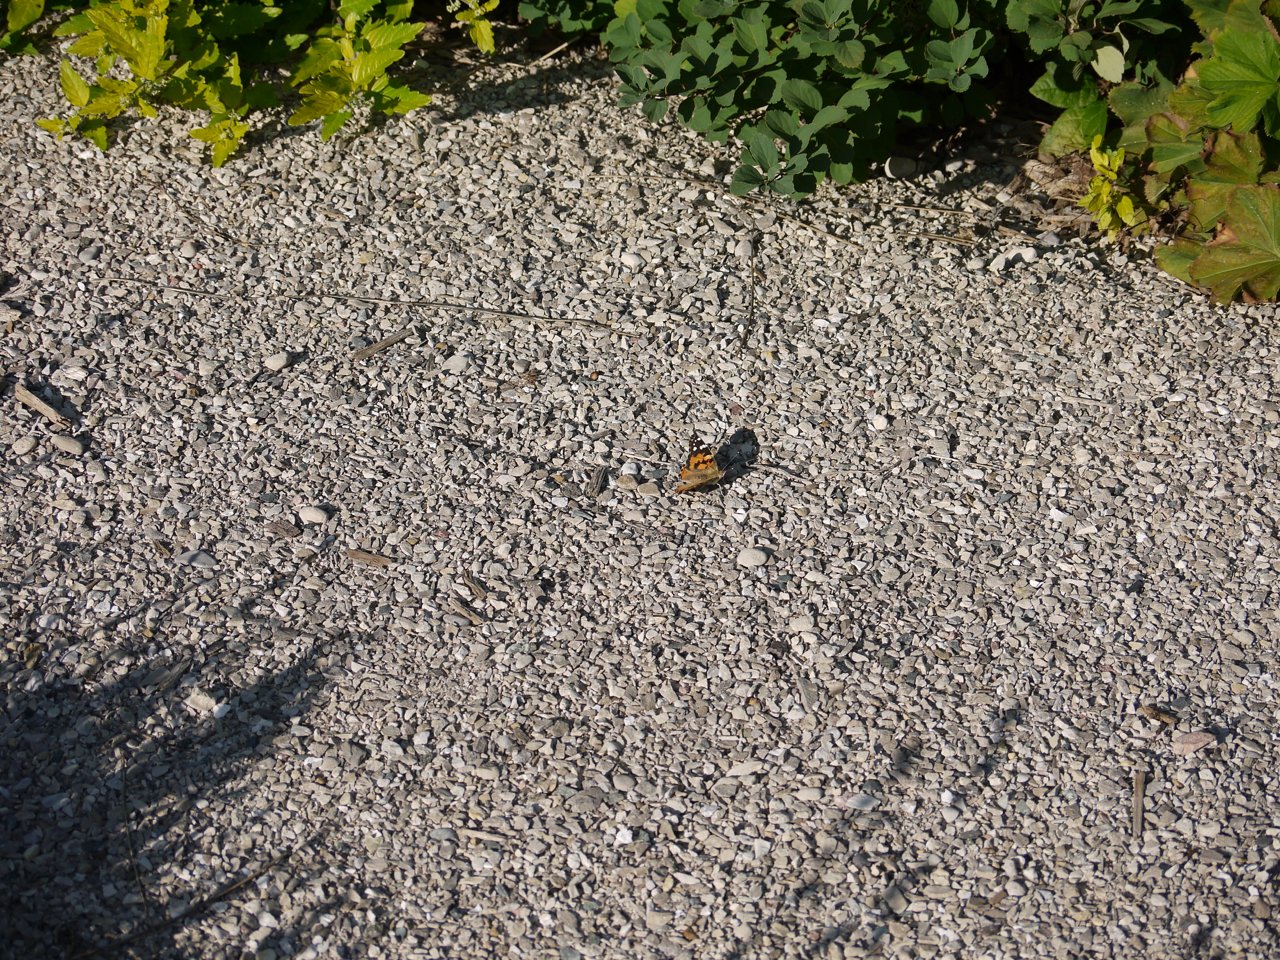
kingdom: Animalia
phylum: Arthropoda
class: Insecta
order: Lepidoptera
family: Nymphalidae
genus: Vanessa
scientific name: Vanessa cardui
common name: Painted Lady
